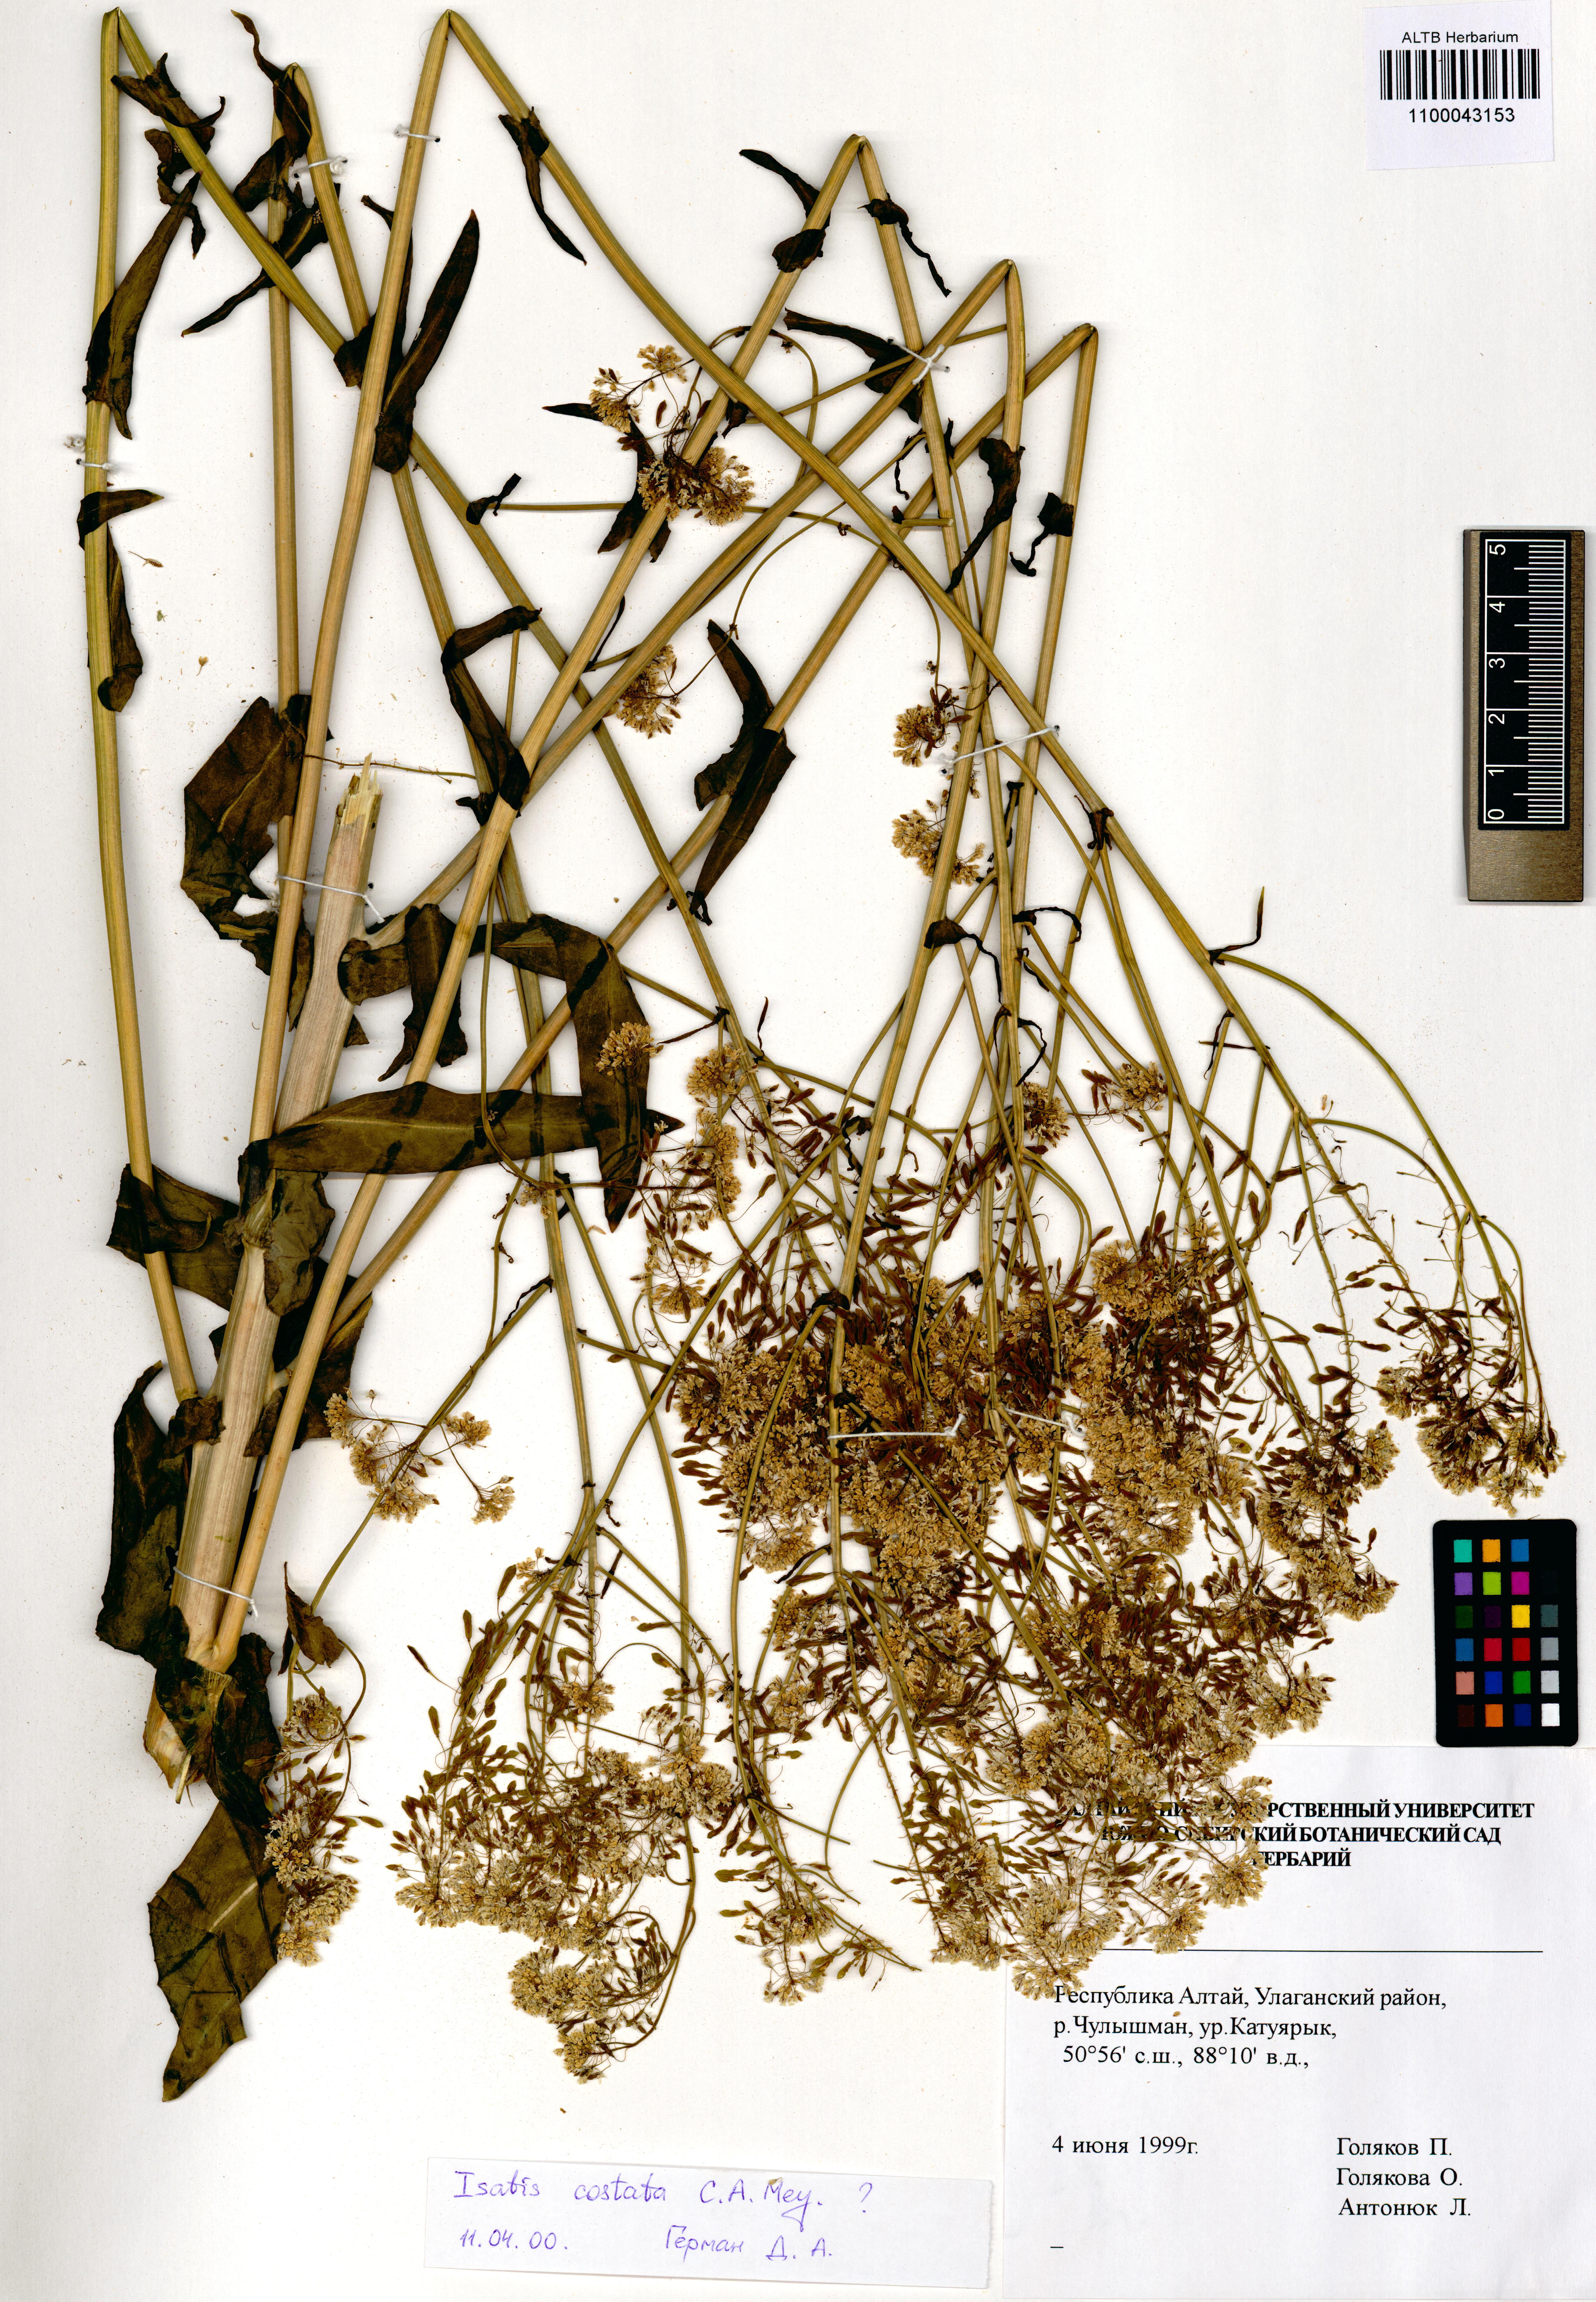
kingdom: Plantae
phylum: Tracheophyta
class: Magnoliopsida
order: Brassicales
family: Brassicaceae
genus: Isatis
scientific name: Isatis costata
